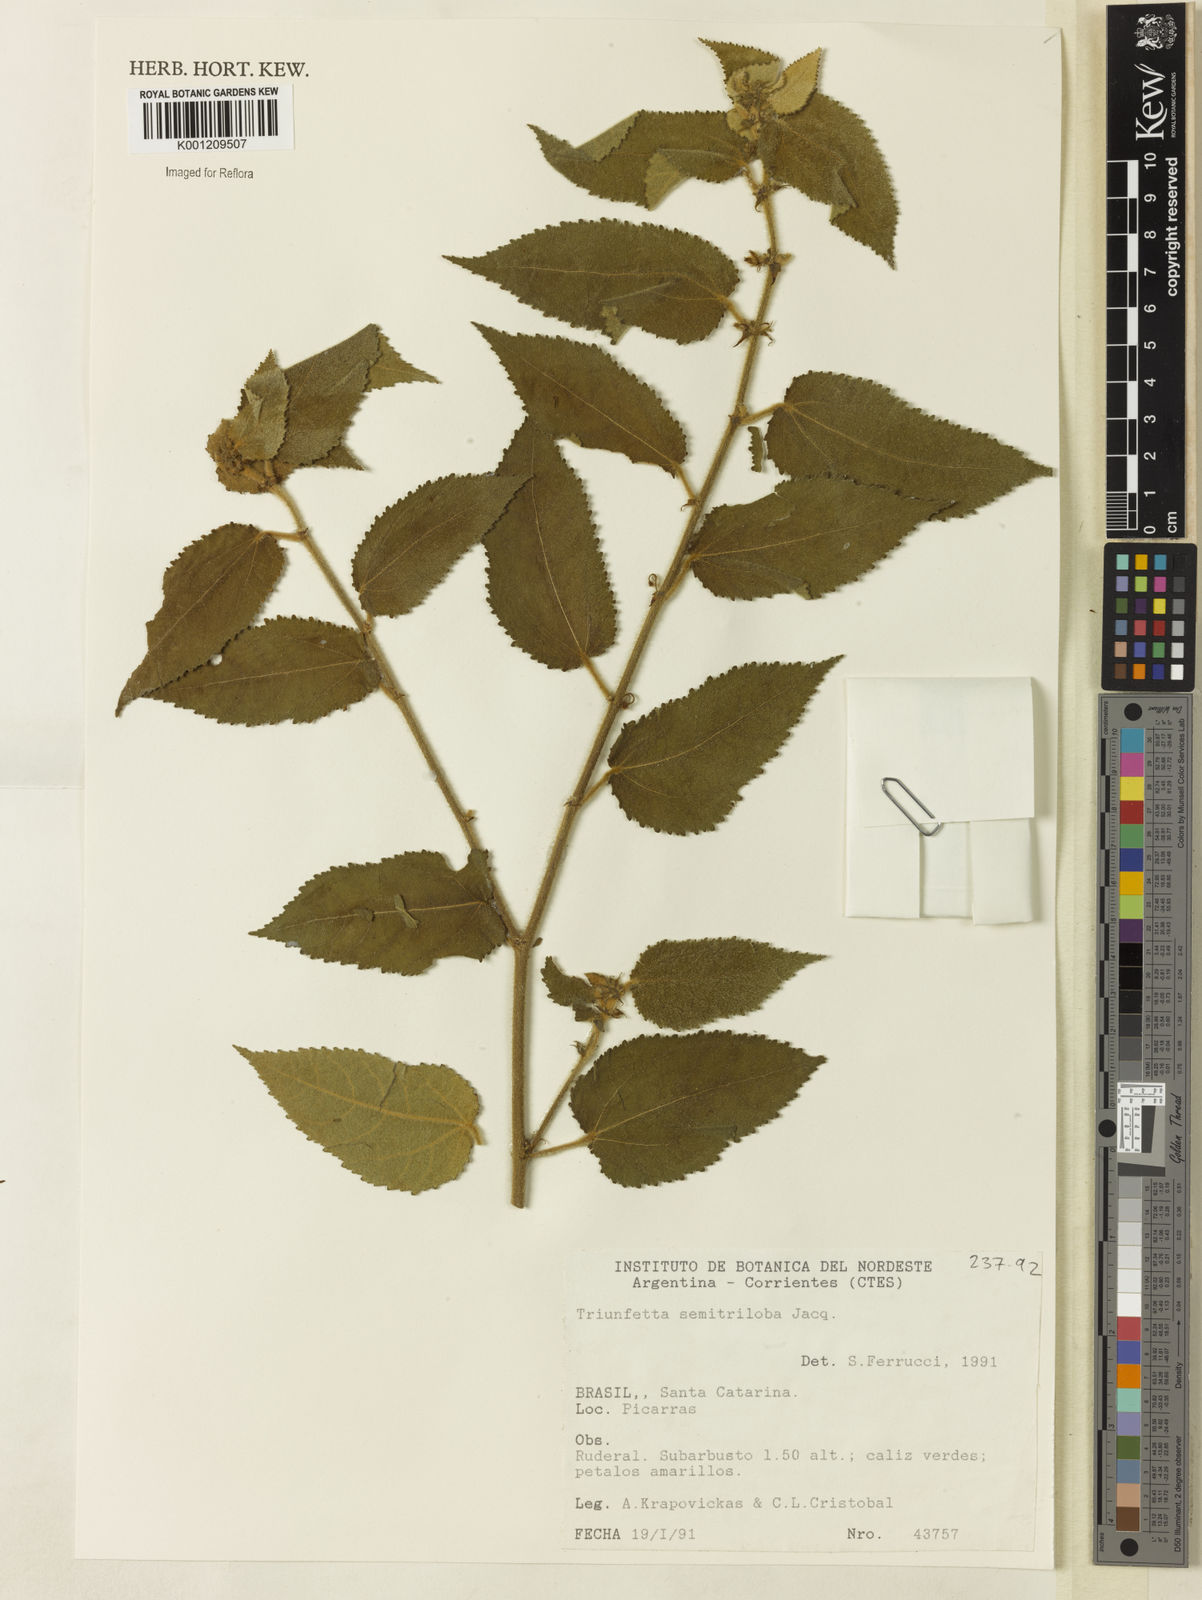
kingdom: Plantae
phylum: Tracheophyta
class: Magnoliopsida
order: Malvales
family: Malvaceae
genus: Triumfetta
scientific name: Triumfetta semitriloba
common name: Sacramento burbark
